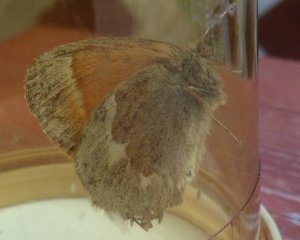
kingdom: Animalia
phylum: Arthropoda
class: Insecta
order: Lepidoptera
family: Nymphalidae
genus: Coenonympha
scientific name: Coenonympha tullia
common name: Large Heath
